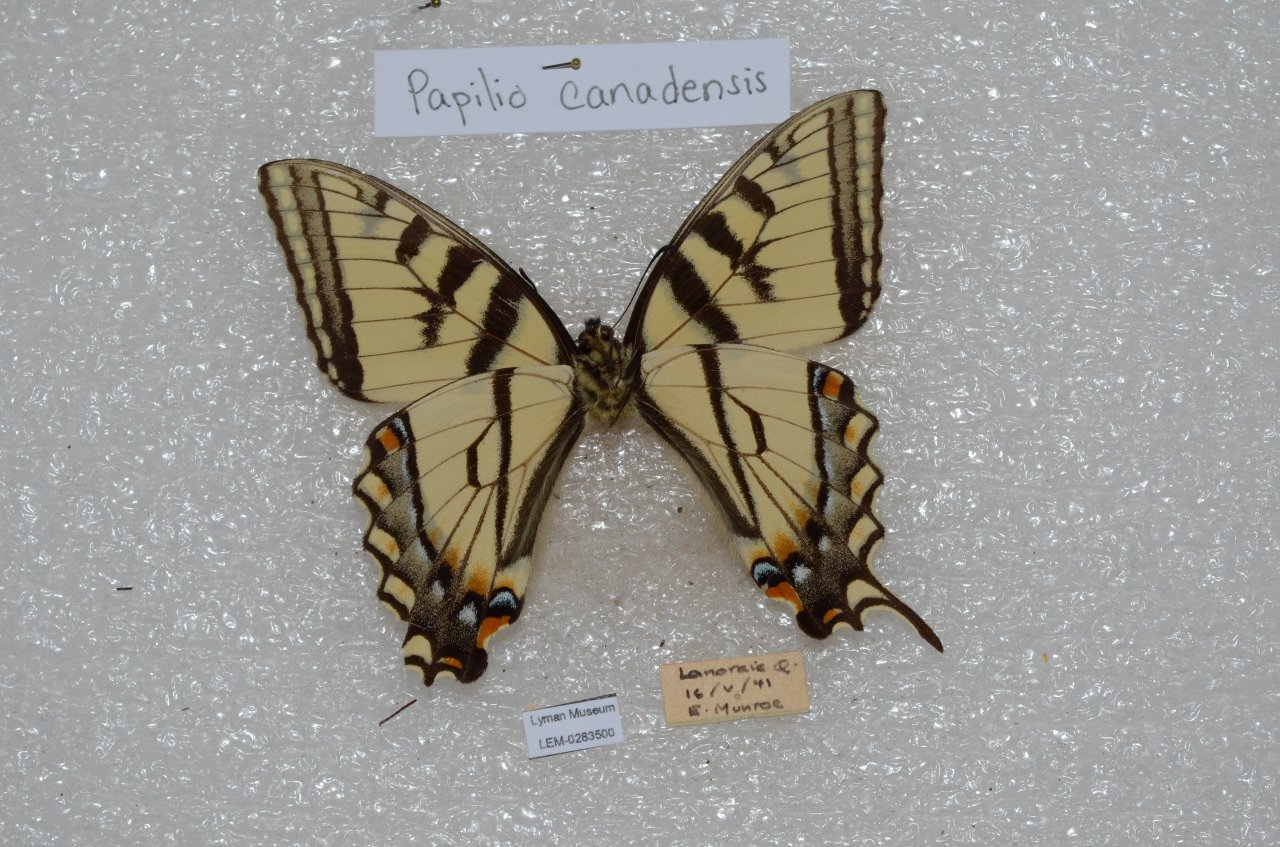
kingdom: Animalia
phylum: Arthropoda
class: Insecta
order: Lepidoptera
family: Papilionidae
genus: Pterourus
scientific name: Pterourus canadensis
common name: Canadian Tiger Swallowtail
